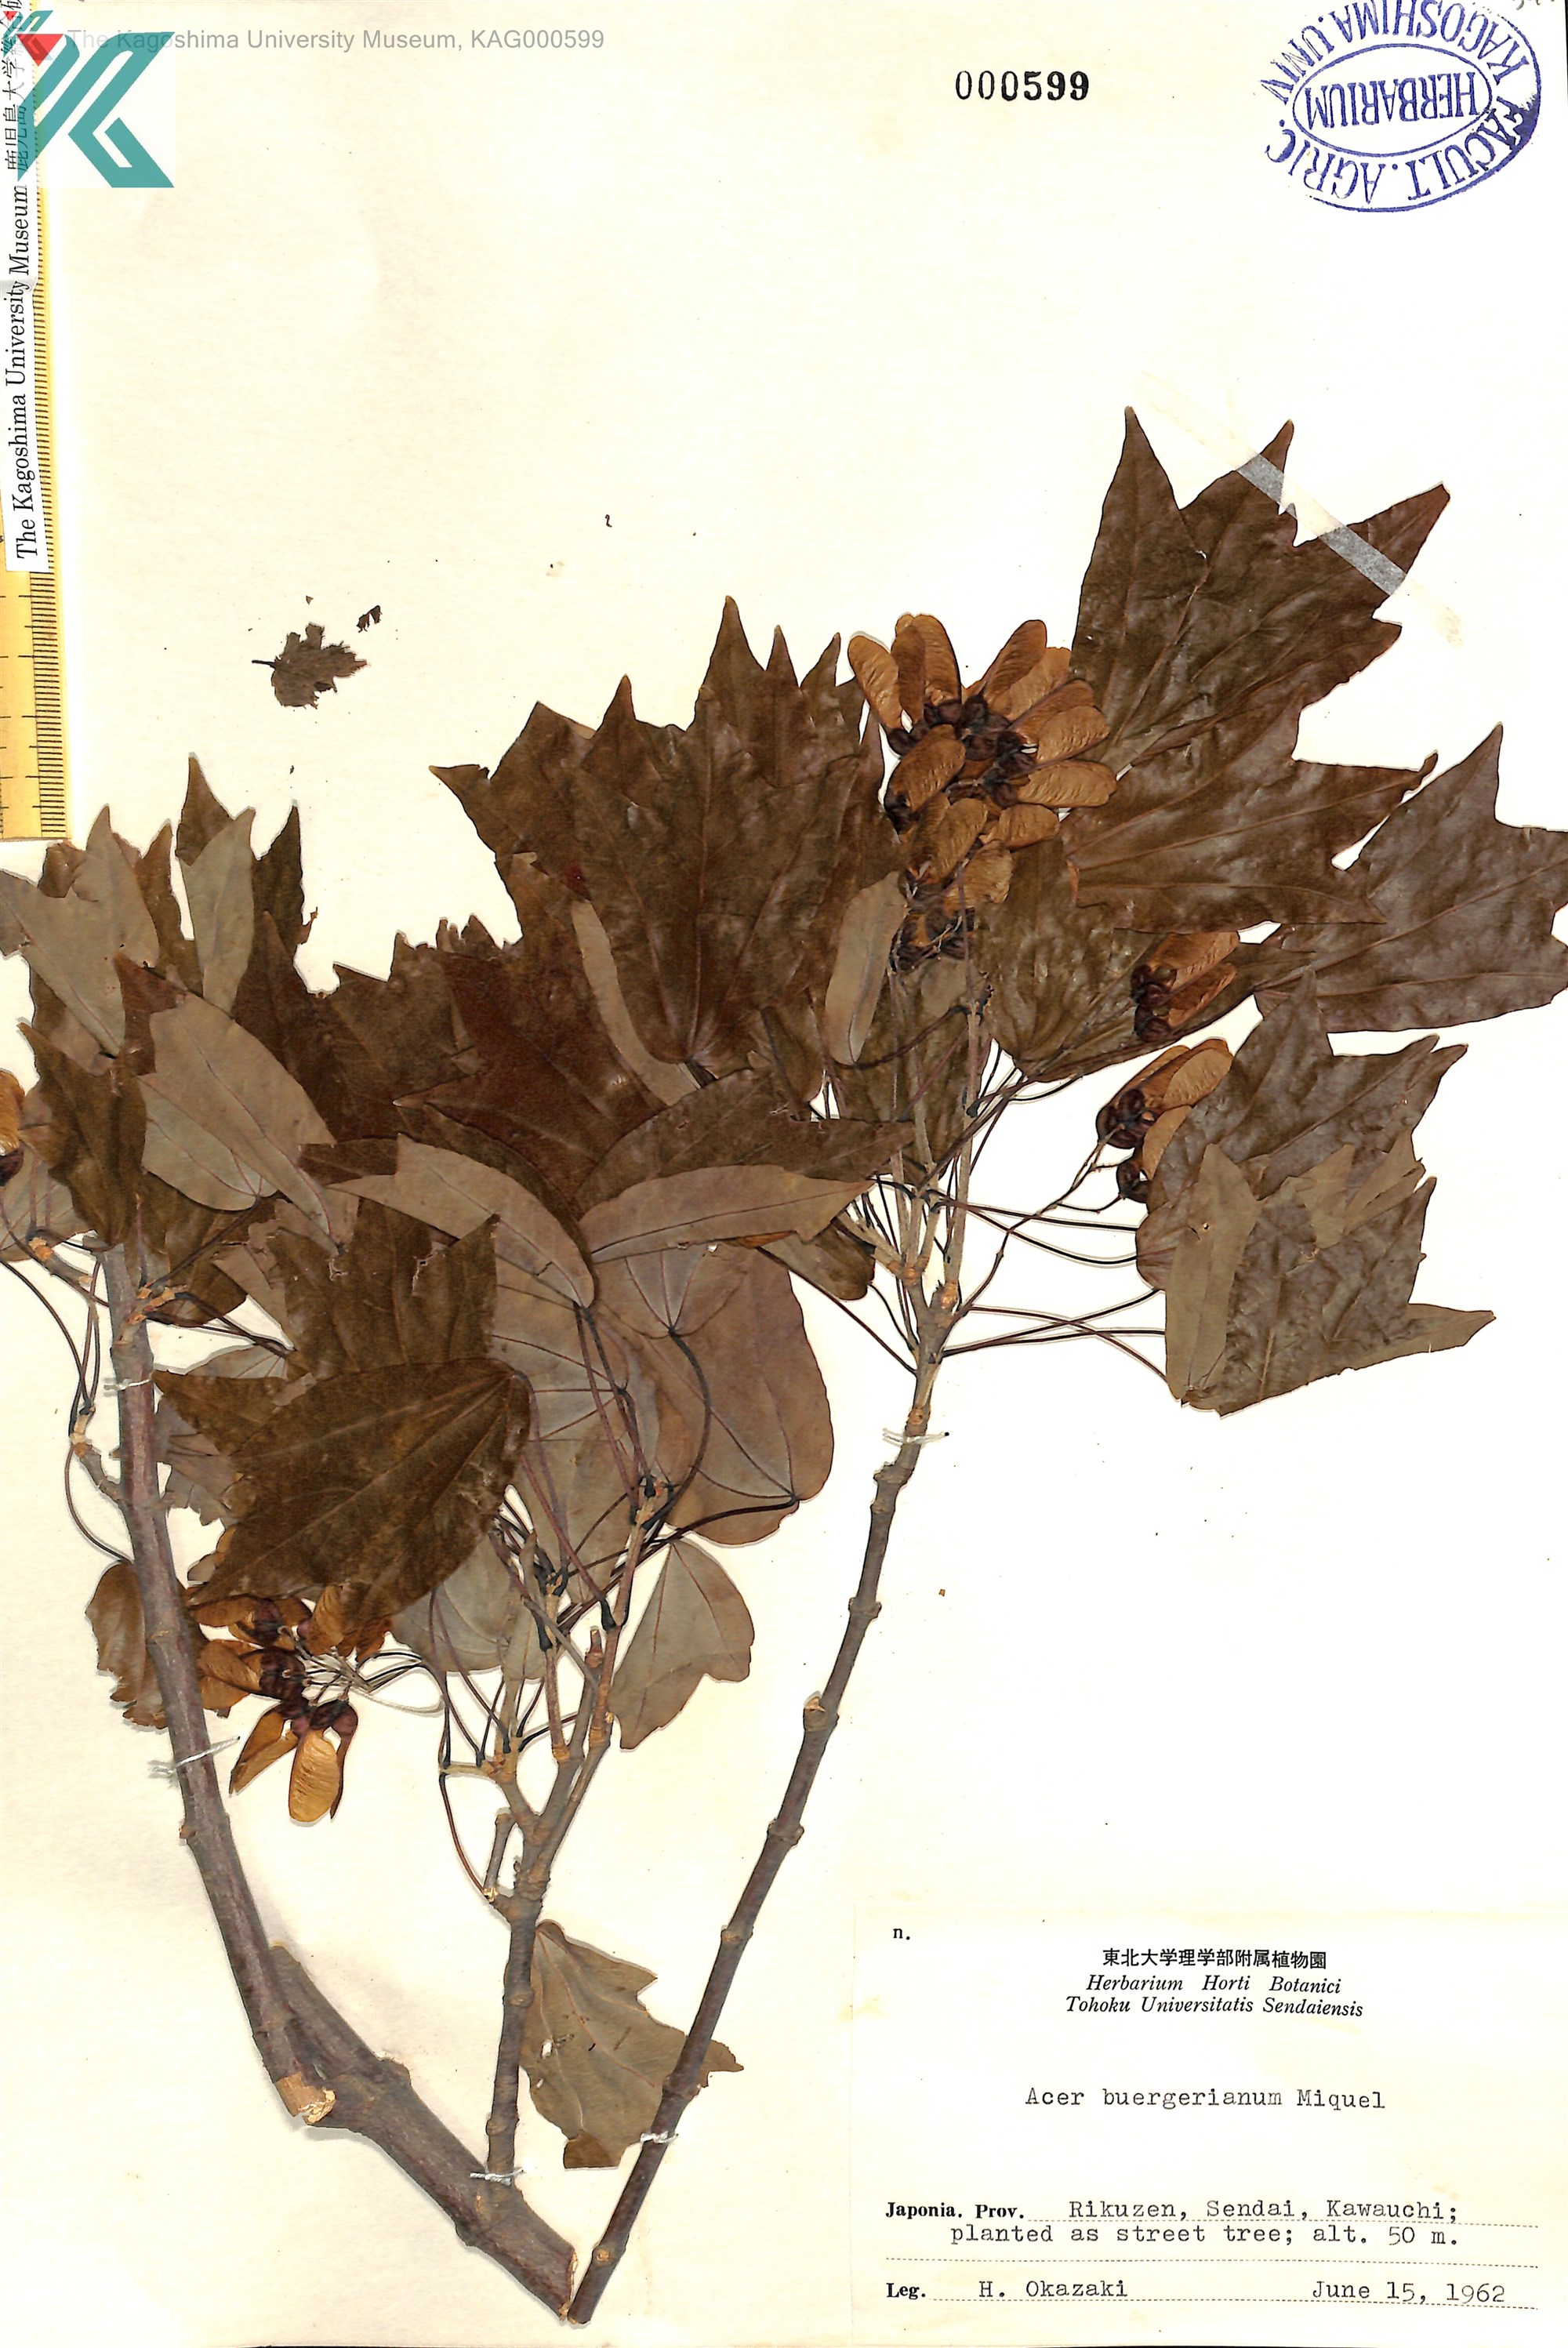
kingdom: Plantae
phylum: Tracheophyta
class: Magnoliopsida
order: Sapindales
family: Sapindaceae
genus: Acer
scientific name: Acer buergerianum
